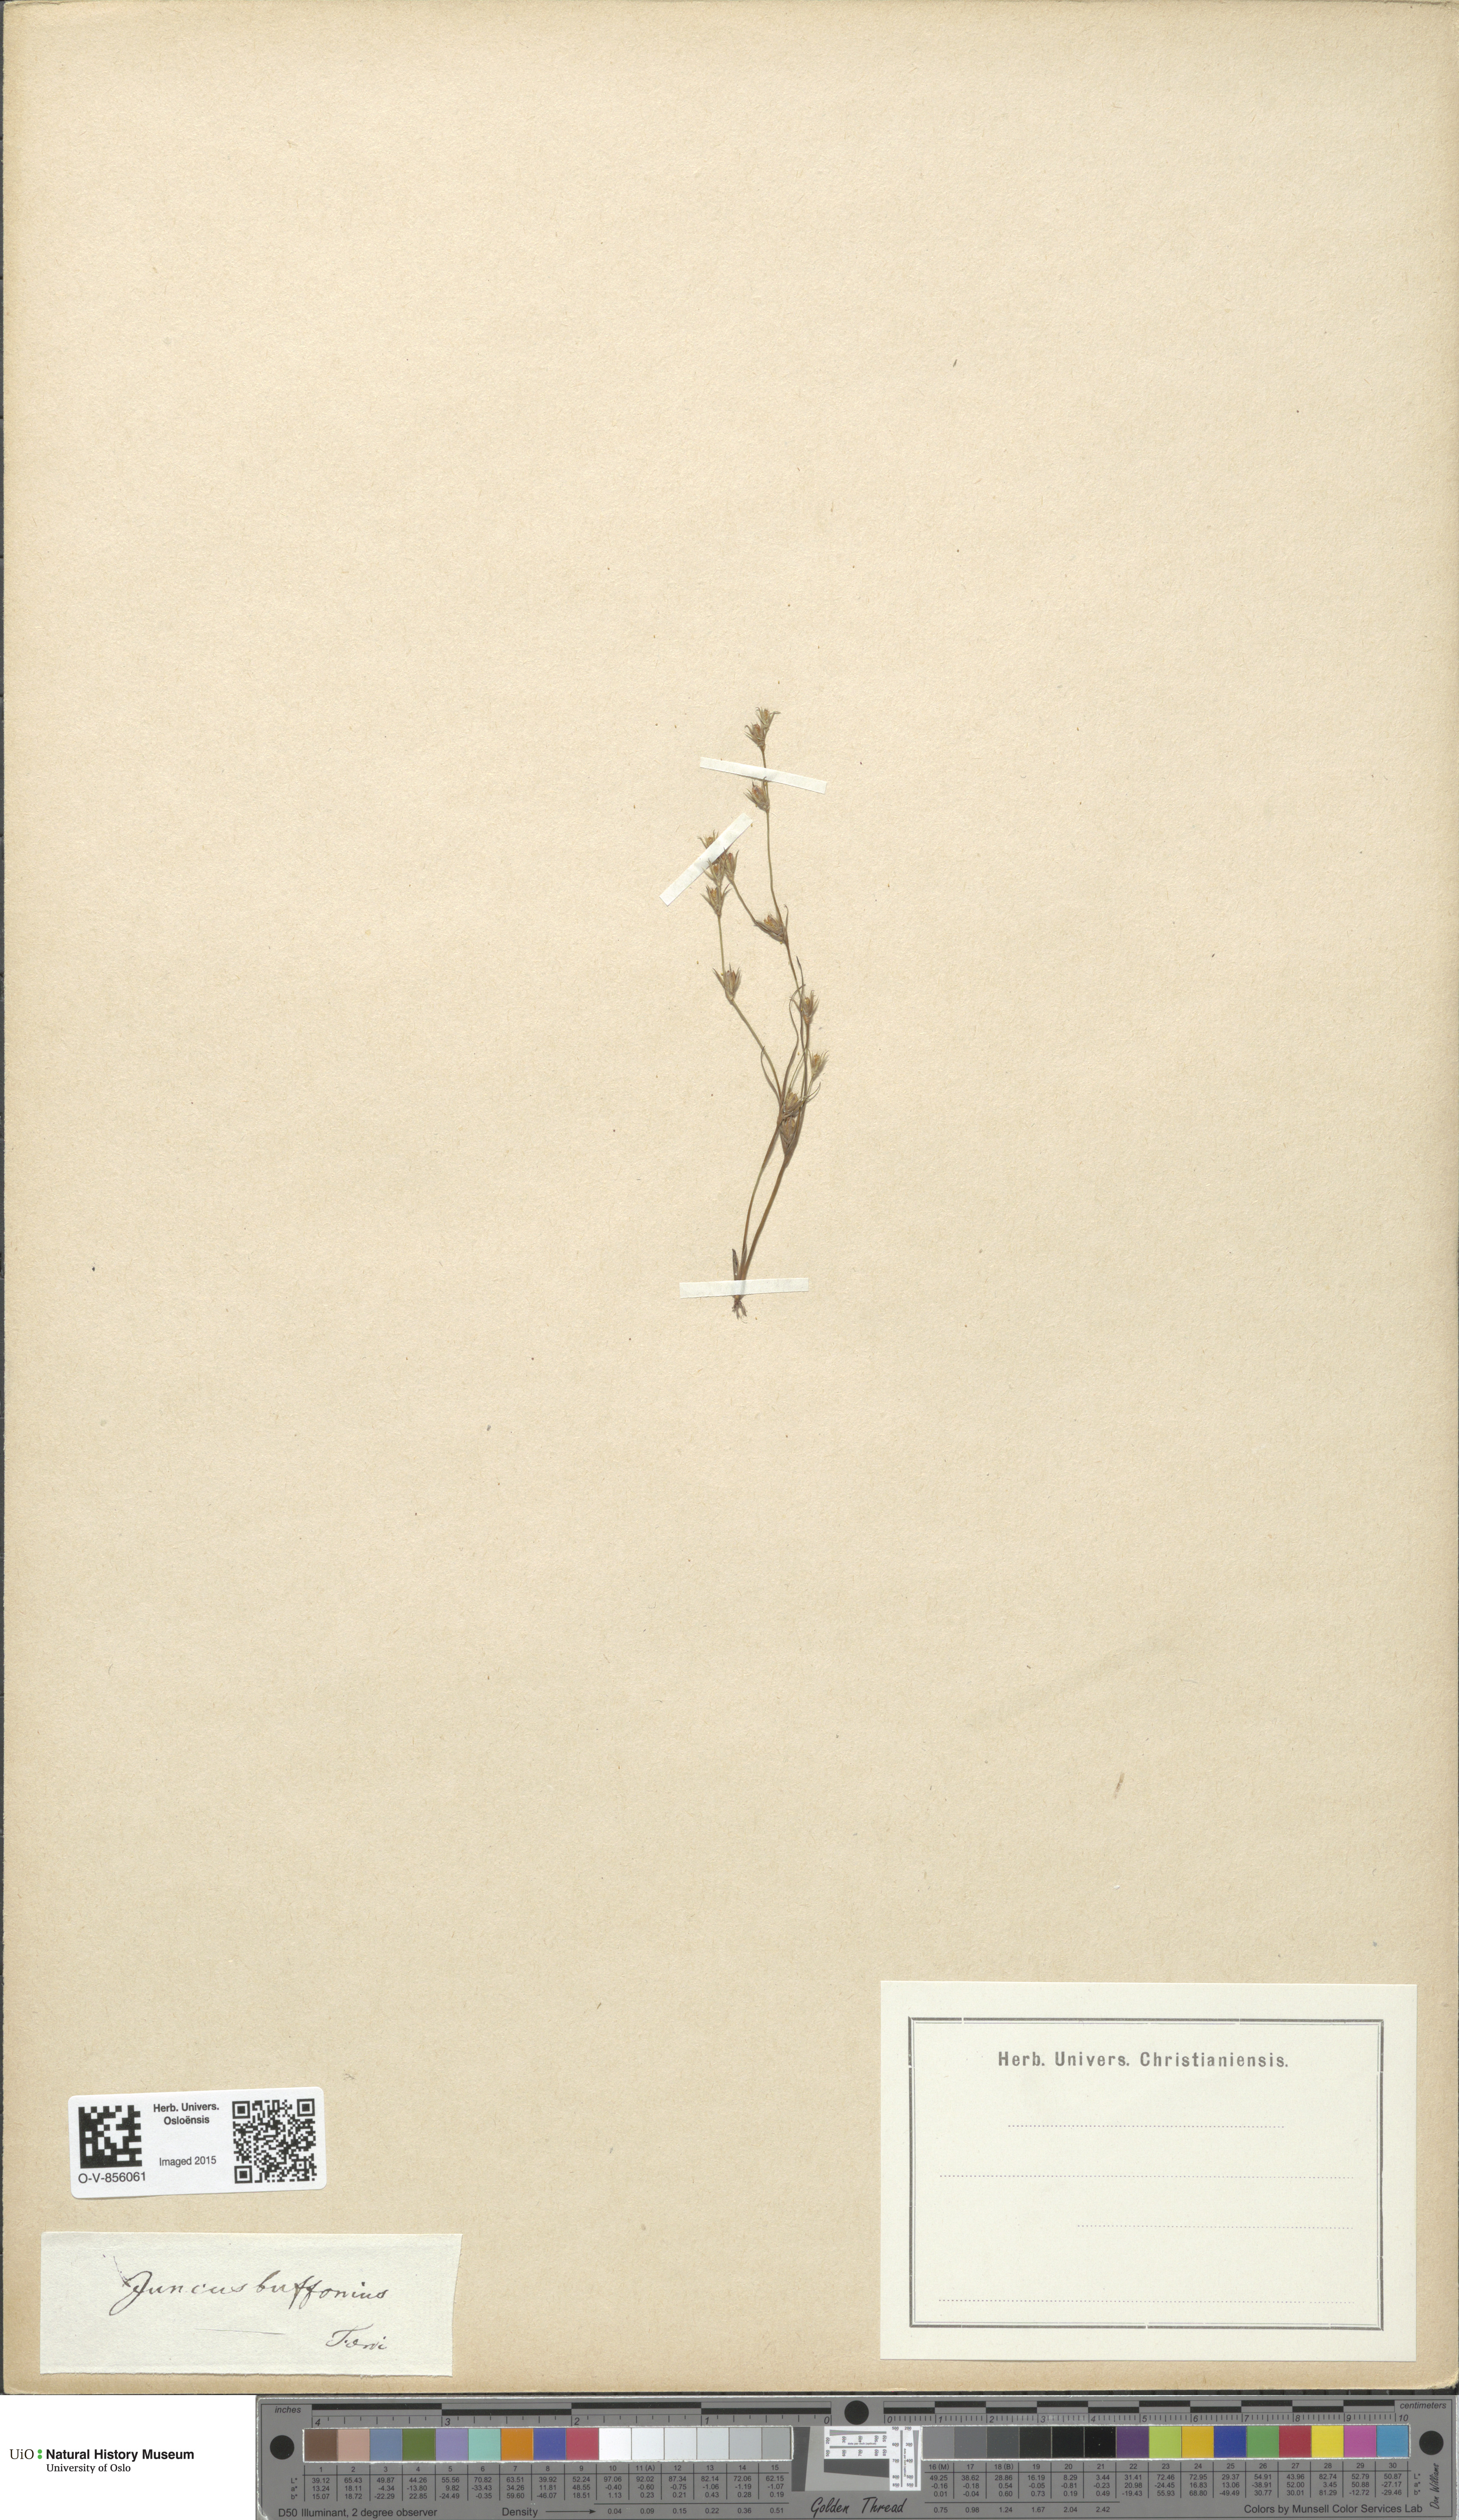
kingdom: Plantae
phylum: Tracheophyta
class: Liliopsida
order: Poales
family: Juncaceae
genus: Juncus
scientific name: Juncus bufonius
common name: Toad rush
